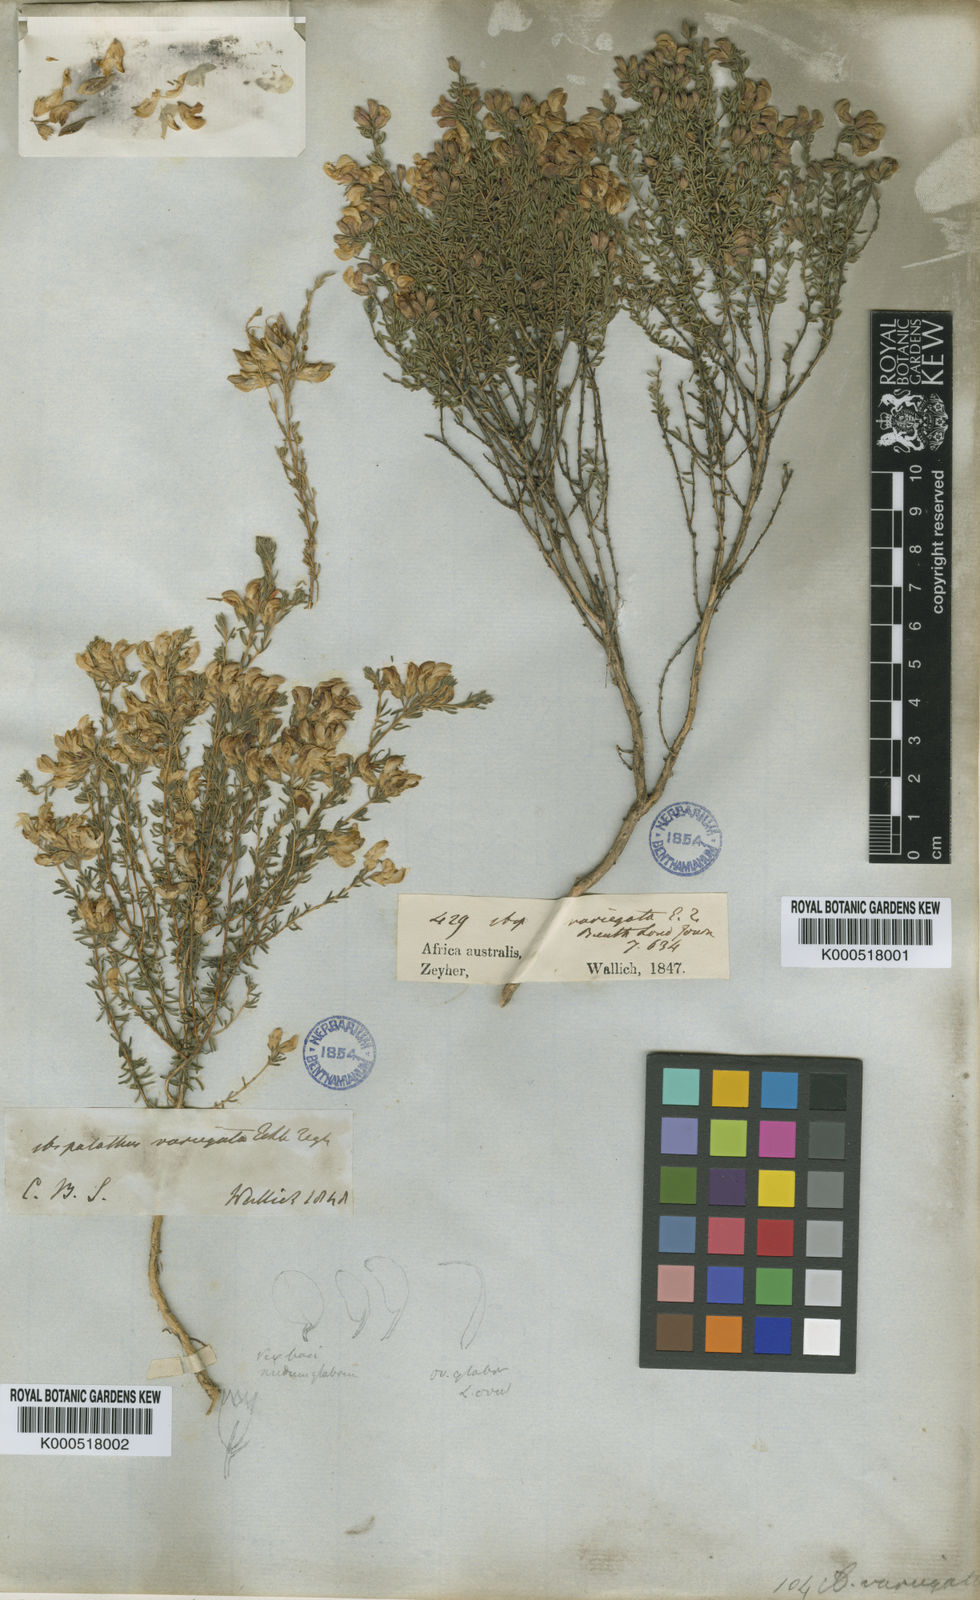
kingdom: Plantae
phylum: Tracheophyta
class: Magnoliopsida
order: Fabales
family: Fabaceae
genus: Aspalathus
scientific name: Aspalathus variegata
